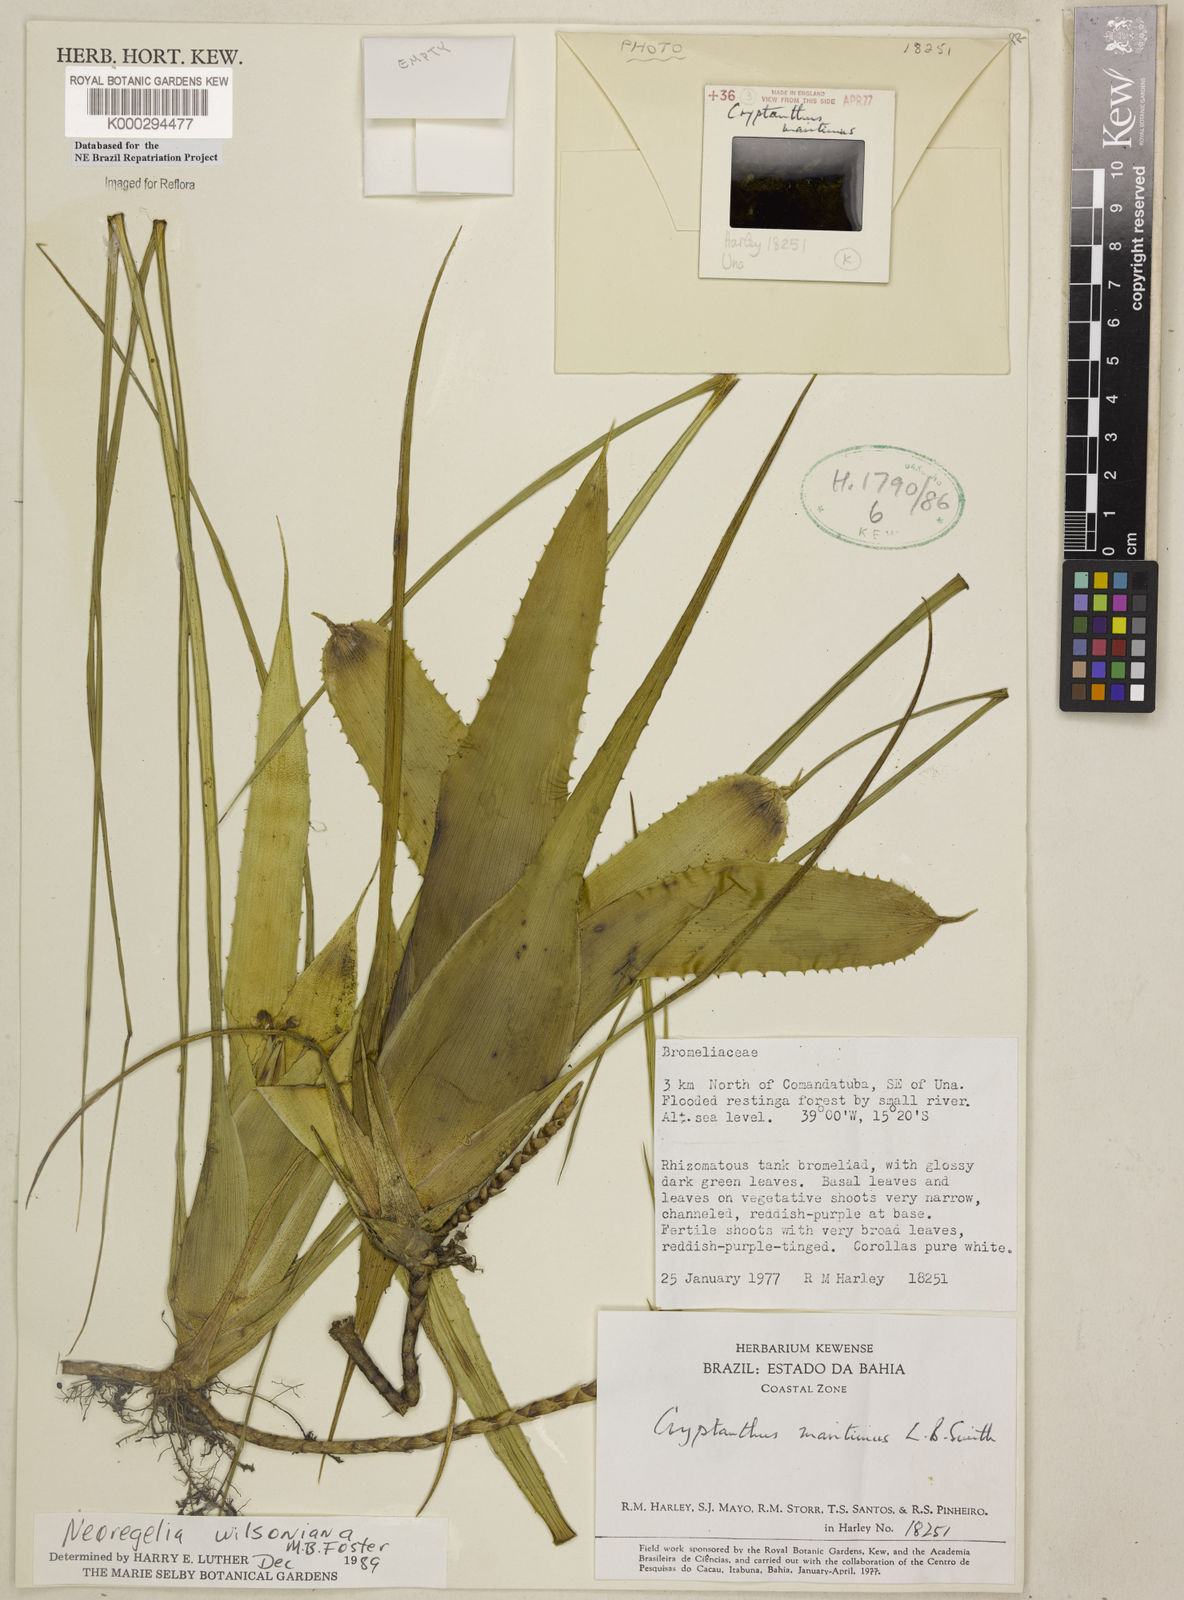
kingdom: Plantae
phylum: Tracheophyta
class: Liliopsida
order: Poales
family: Bromeliaceae
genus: Neoregelia
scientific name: Neoregelia wilsoniana
